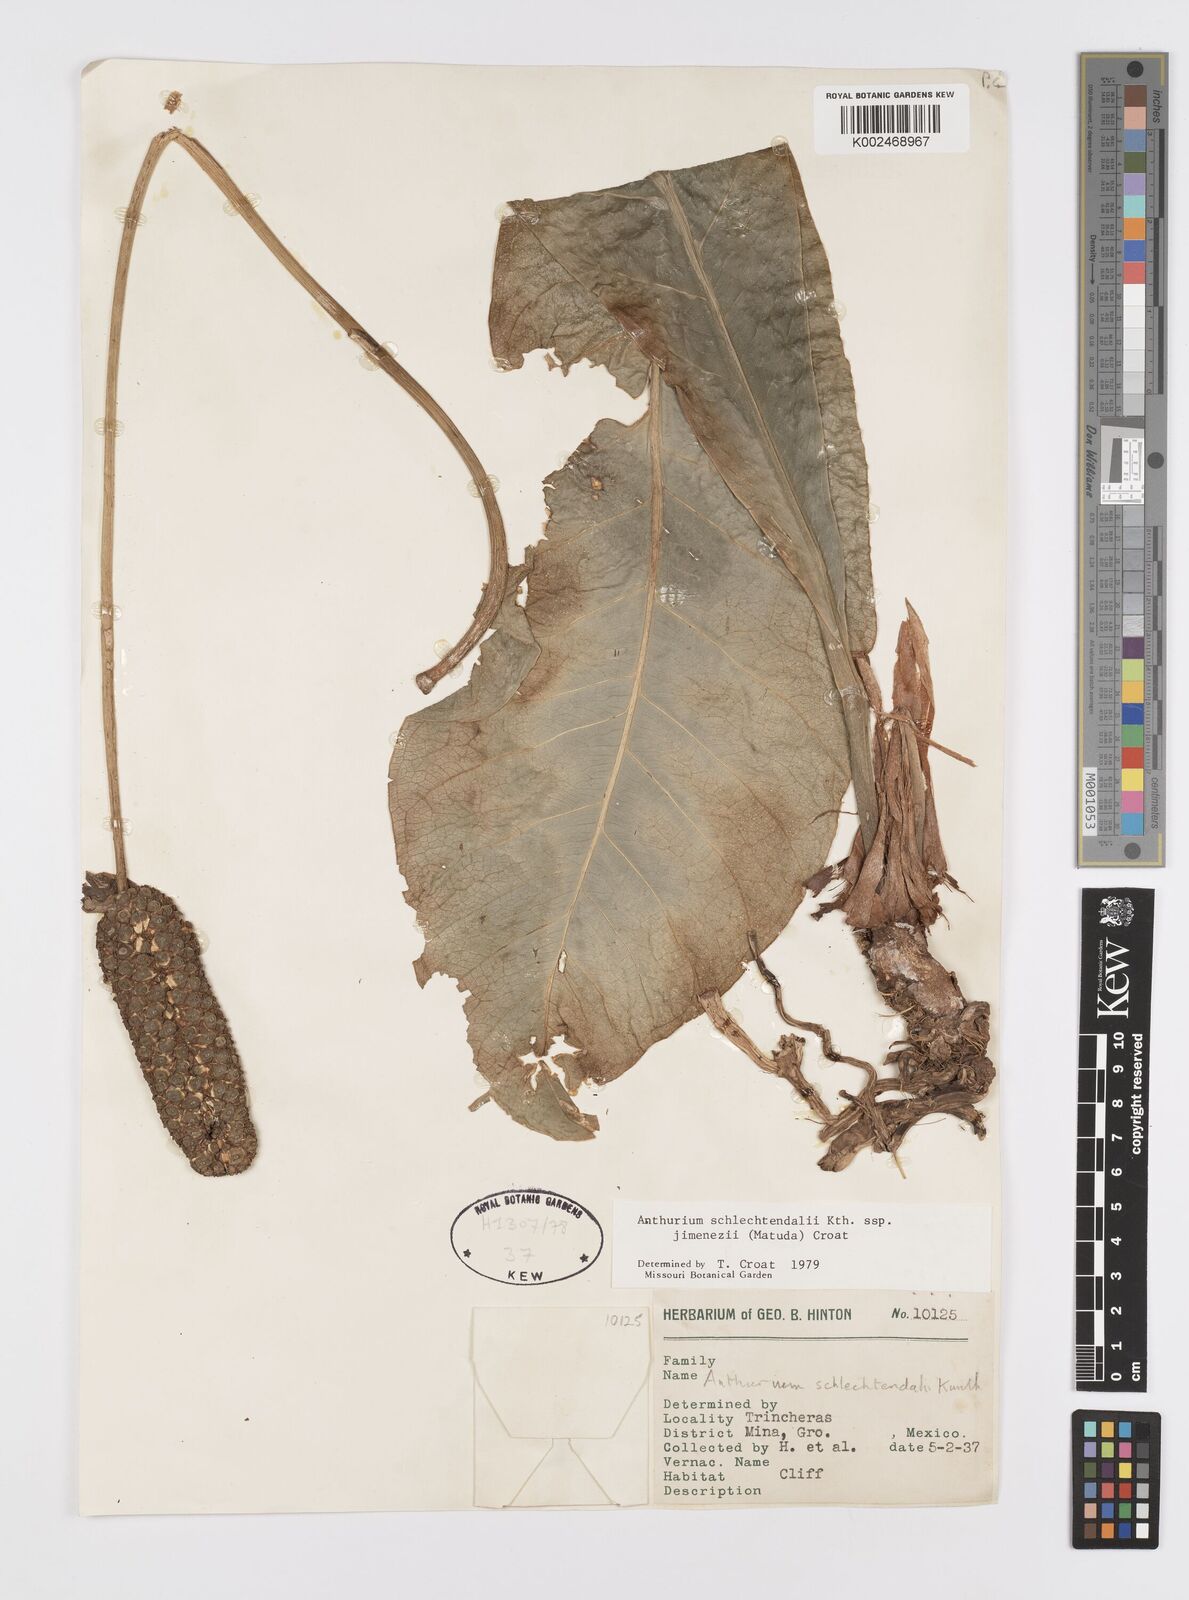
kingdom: Plantae
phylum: Tracheophyta
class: Liliopsida
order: Alismatales
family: Araceae
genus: Anthurium
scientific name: Anthurium schlechtendalii
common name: Laceleaf
